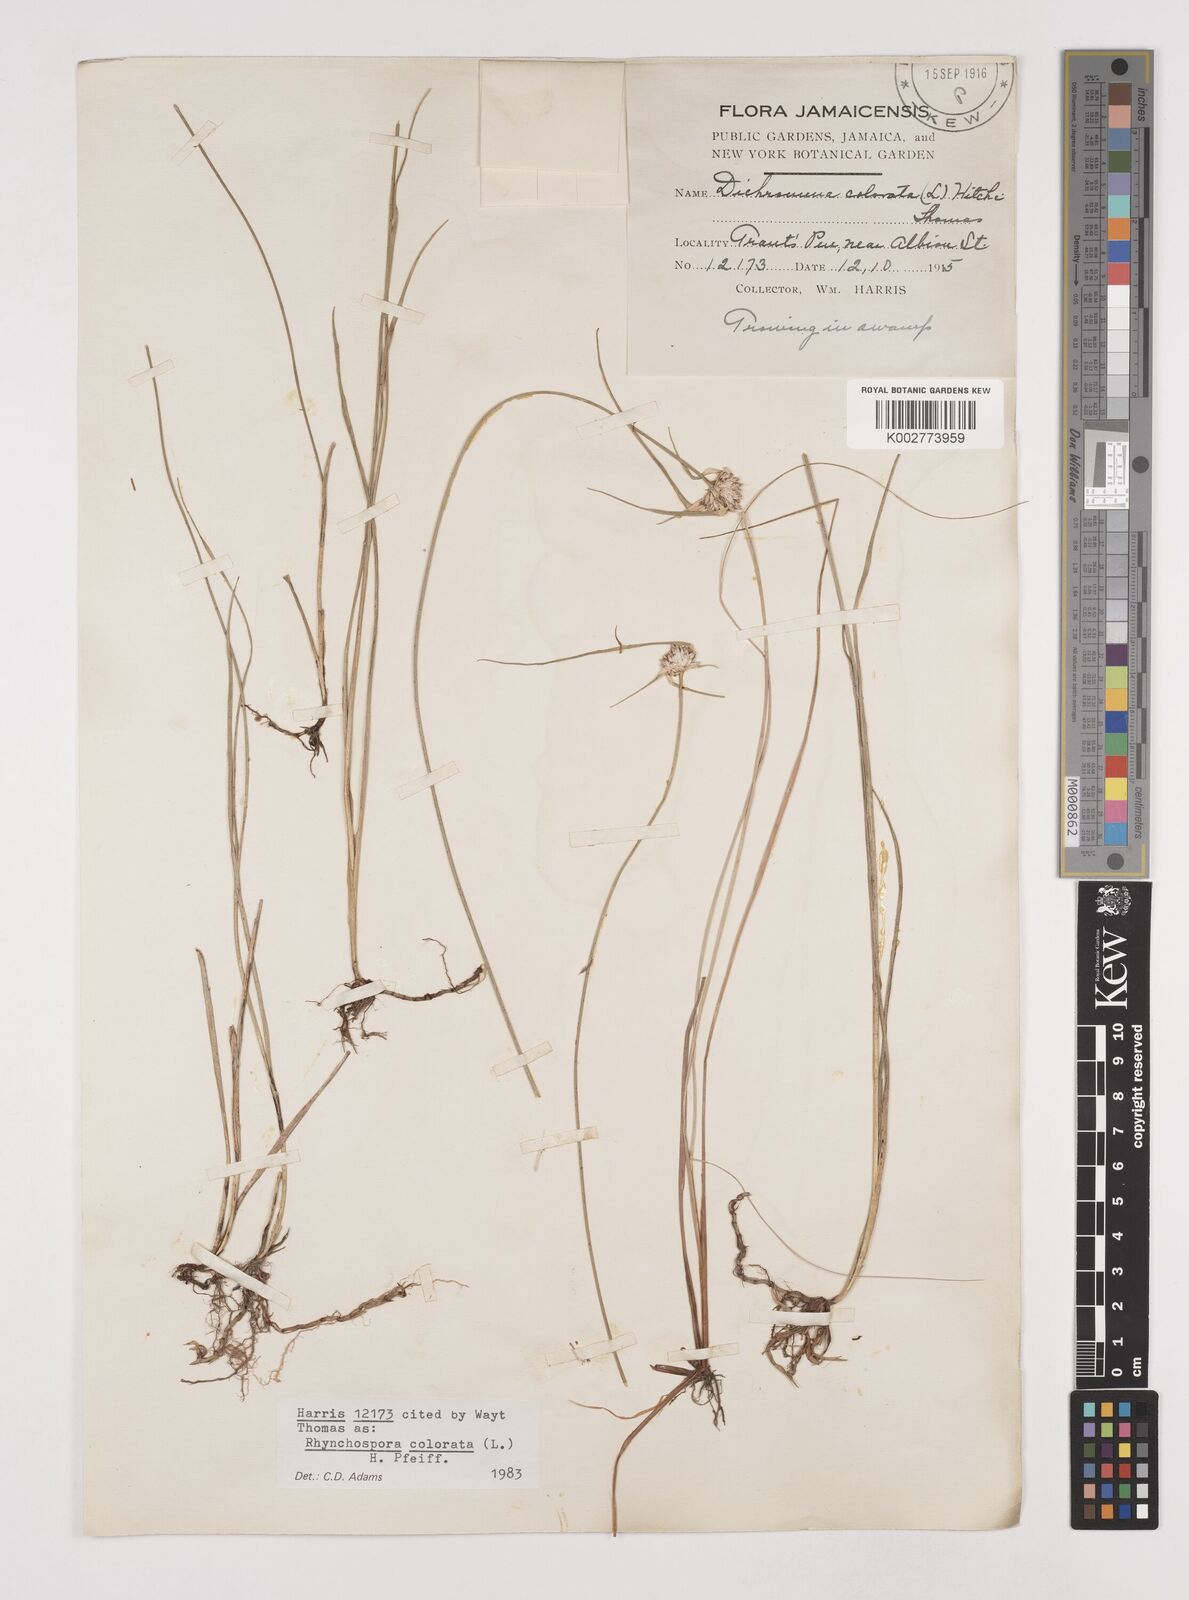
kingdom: Plantae
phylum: Tracheophyta
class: Liliopsida
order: Poales
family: Cyperaceae
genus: Rhynchospora
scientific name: Rhynchospora colorata
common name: Star sedge
